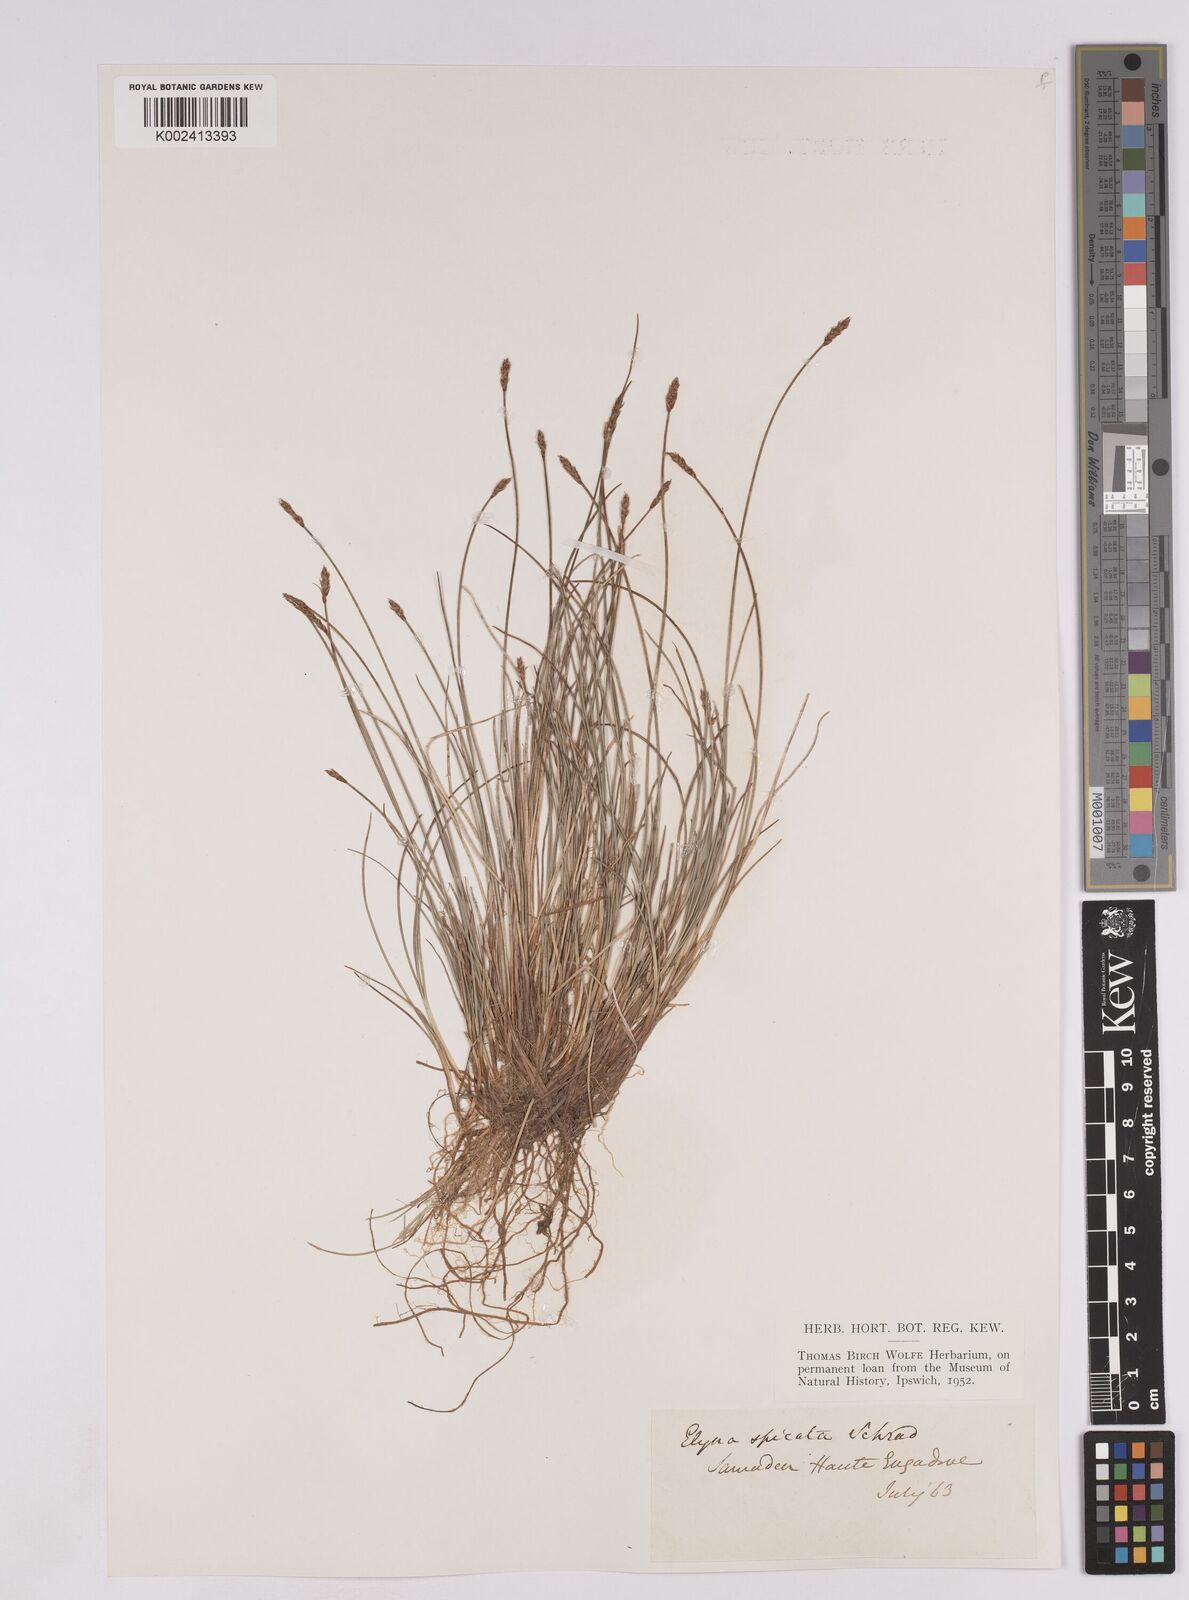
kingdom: Plantae
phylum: Tracheophyta
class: Liliopsida
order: Poales
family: Cyperaceae
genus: Carex
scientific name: Carex myosuroides
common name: Bellard's bog sedge
